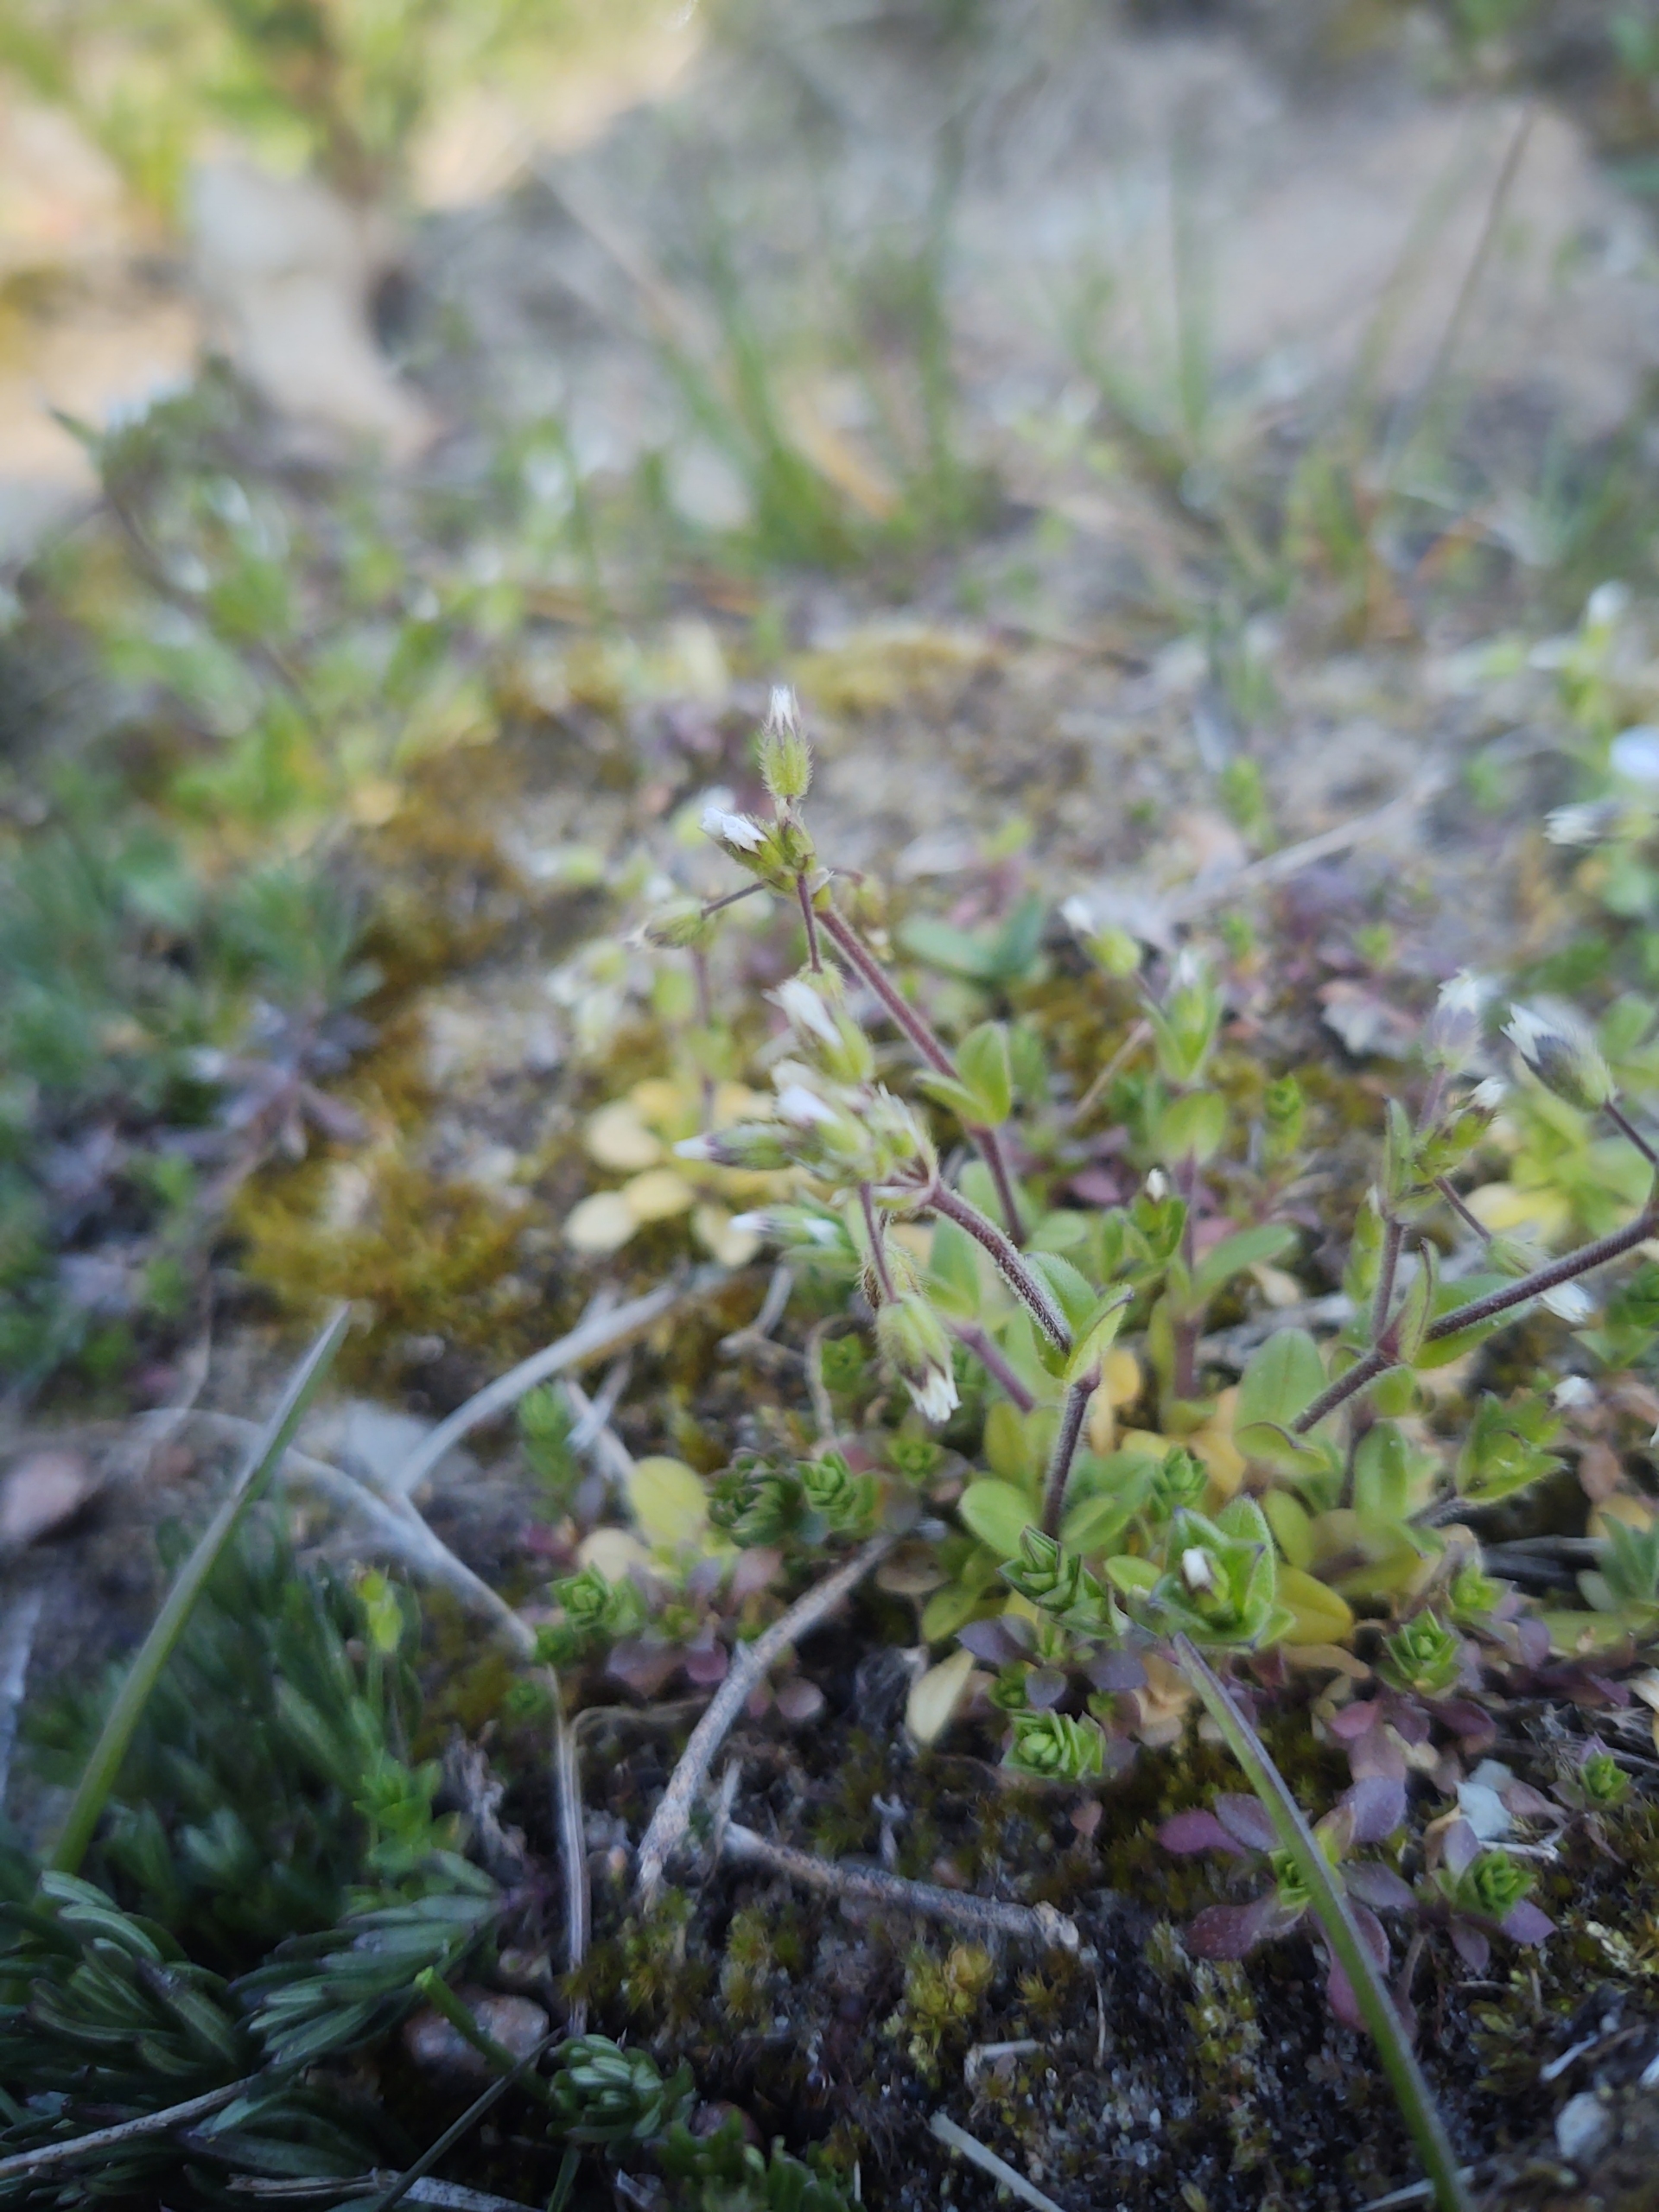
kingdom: Plantae
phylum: Tracheophyta
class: Magnoliopsida
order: Caryophyllales
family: Caryophyllaceae
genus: Cerastium
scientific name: Cerastium semidecandrum
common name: Femhannet hønsetarm
